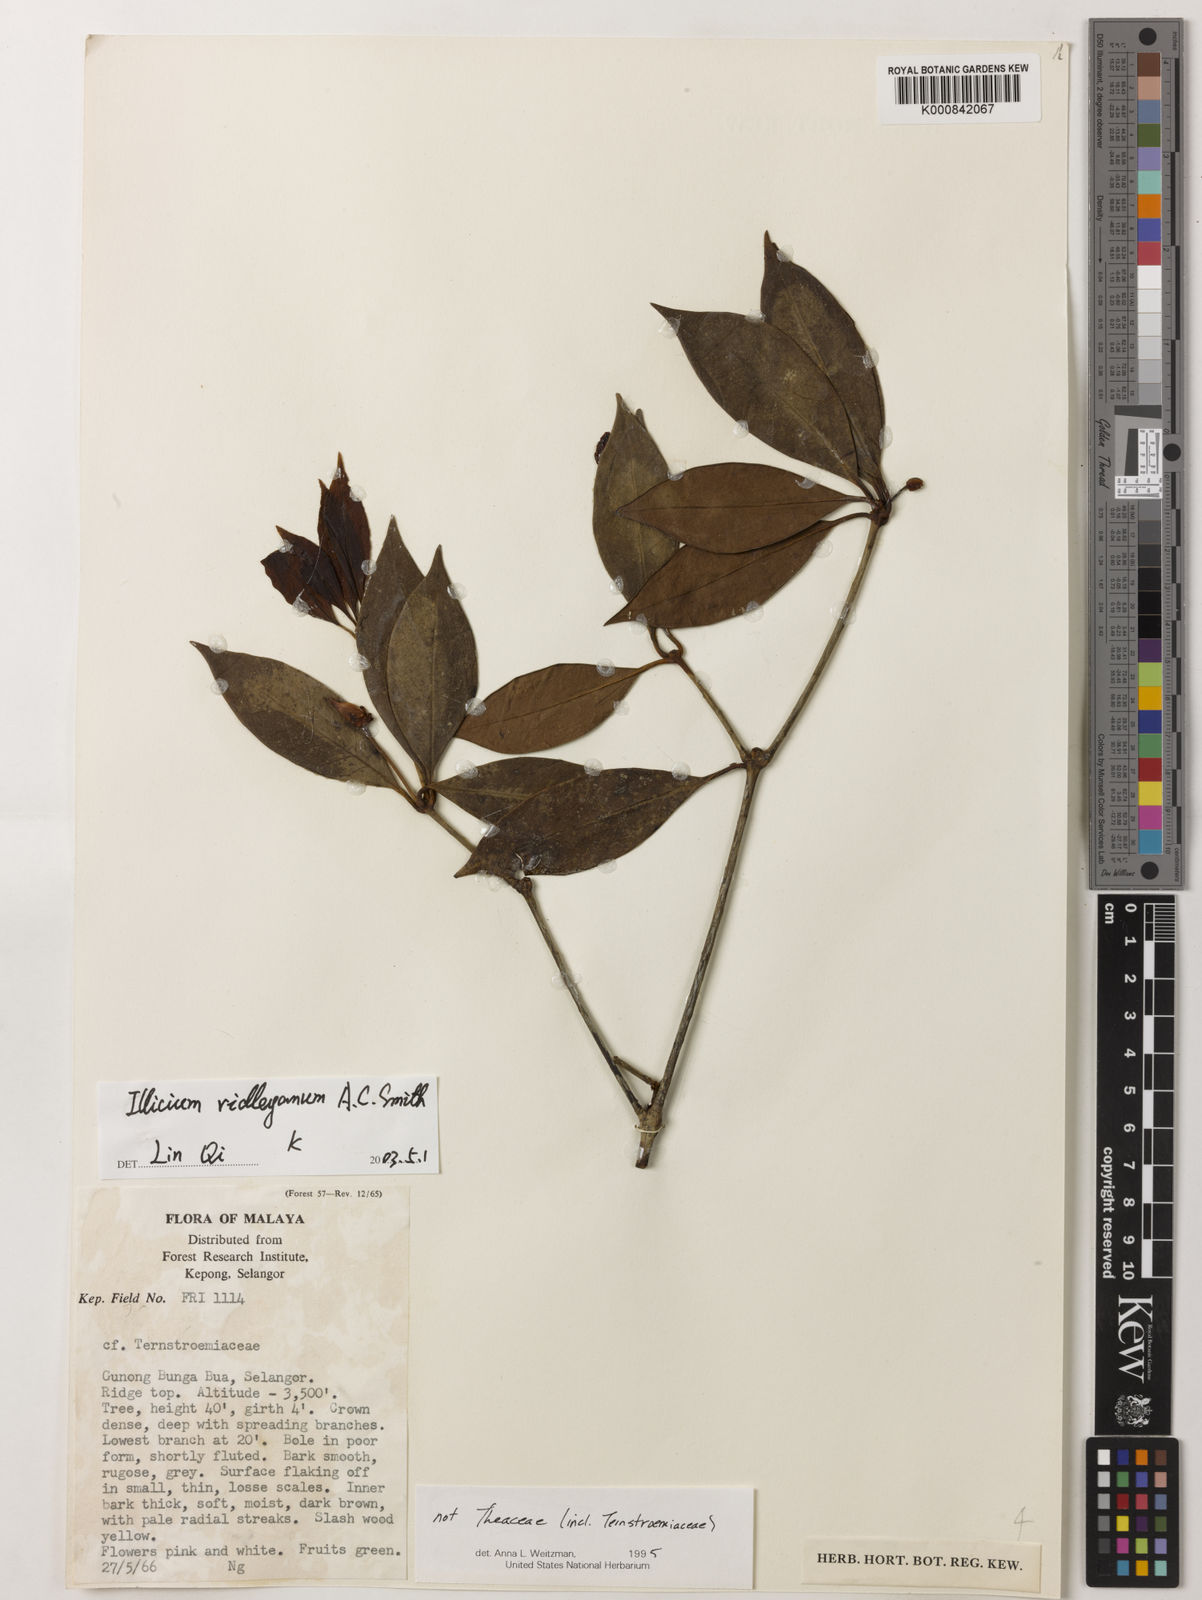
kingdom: Plantae
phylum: Tracheophyta
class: Magnoliopsida
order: Austrobaileyales
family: Schisandraceae
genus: Illicium
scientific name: Illicium ridleyanum
